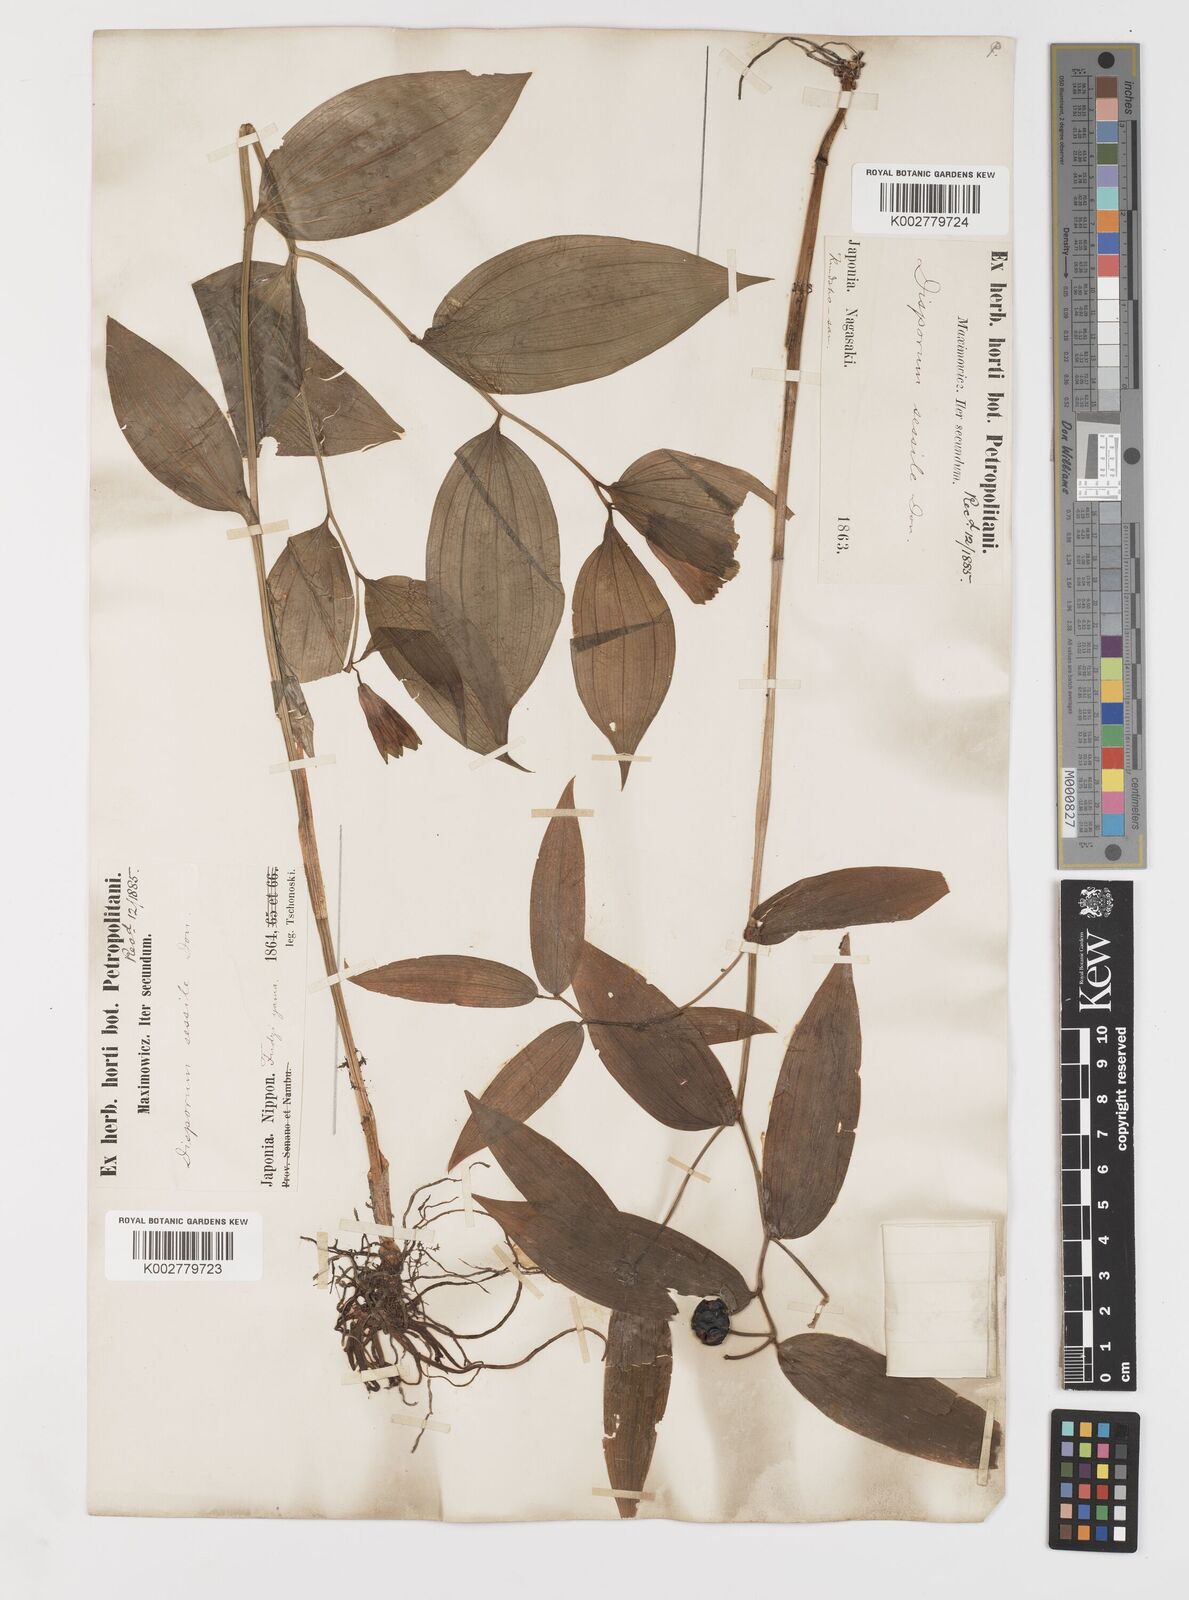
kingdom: Plantae
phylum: Tracheophyta
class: Liliopsida
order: Liliales
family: Colchicaceae
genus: Disporum
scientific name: Disporum sessile
